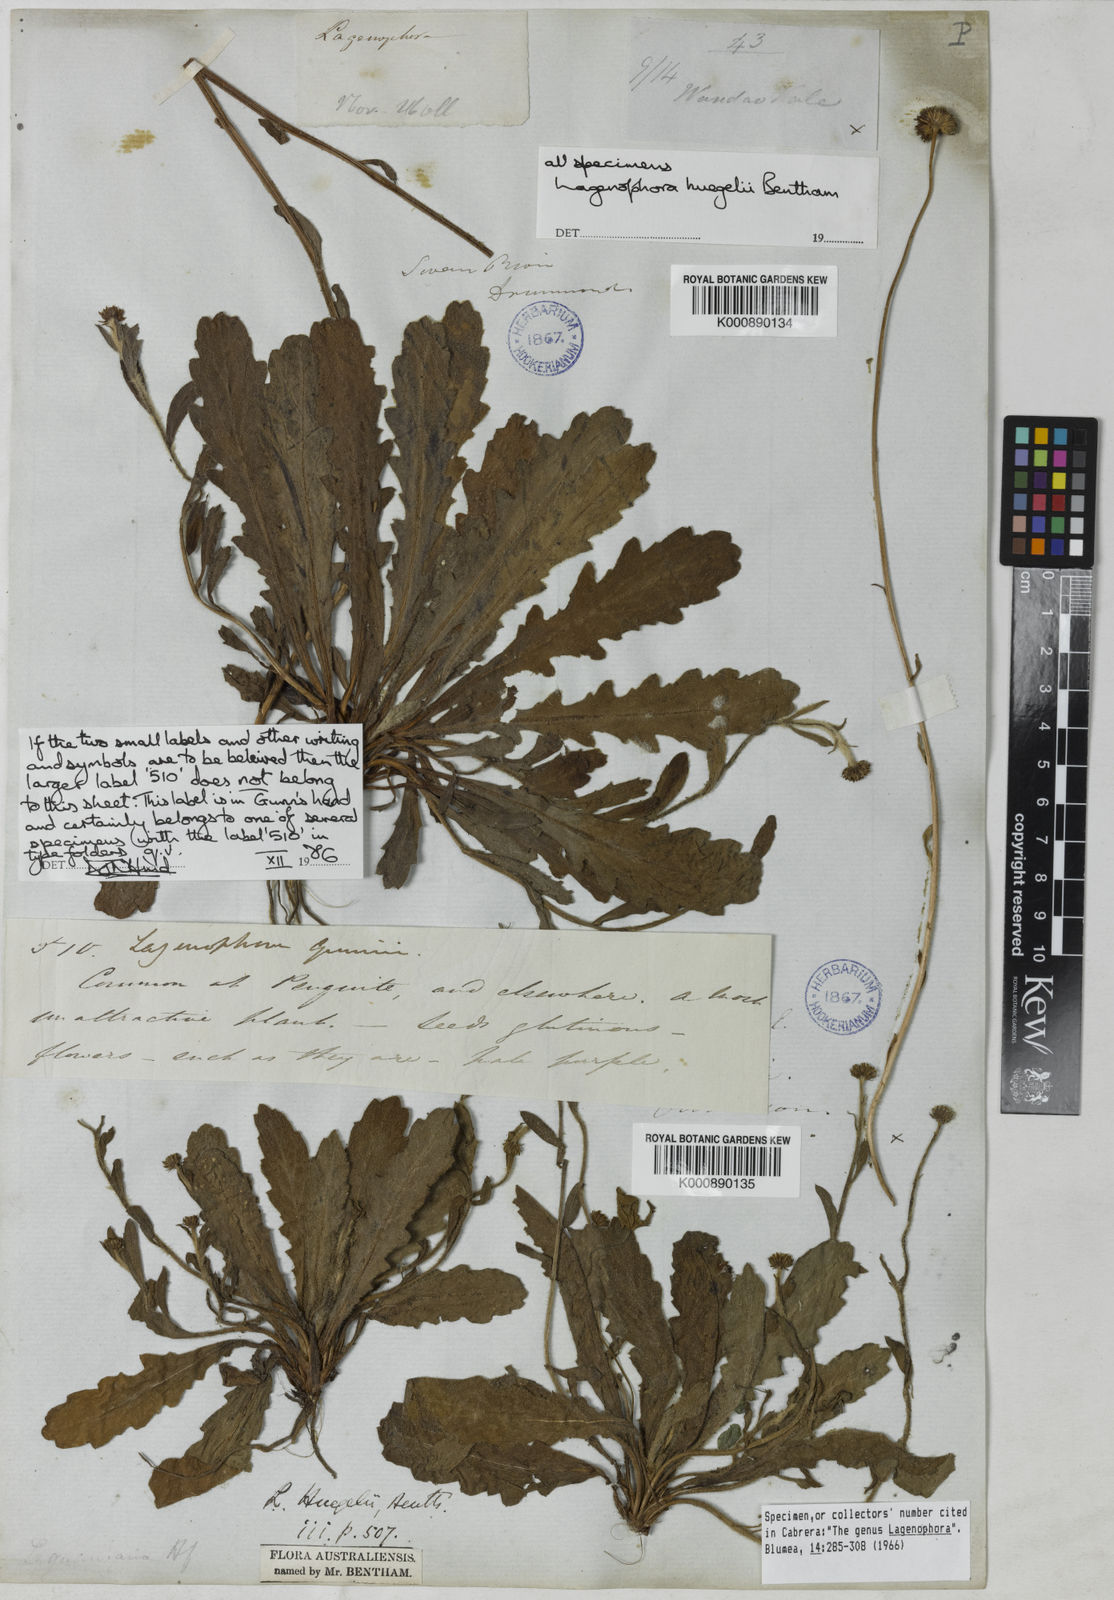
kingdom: Plantae
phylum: Tracheophyta
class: Magnoliopsida
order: Asterales
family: Asteraceae
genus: Lagenophora
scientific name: Lagenophora
